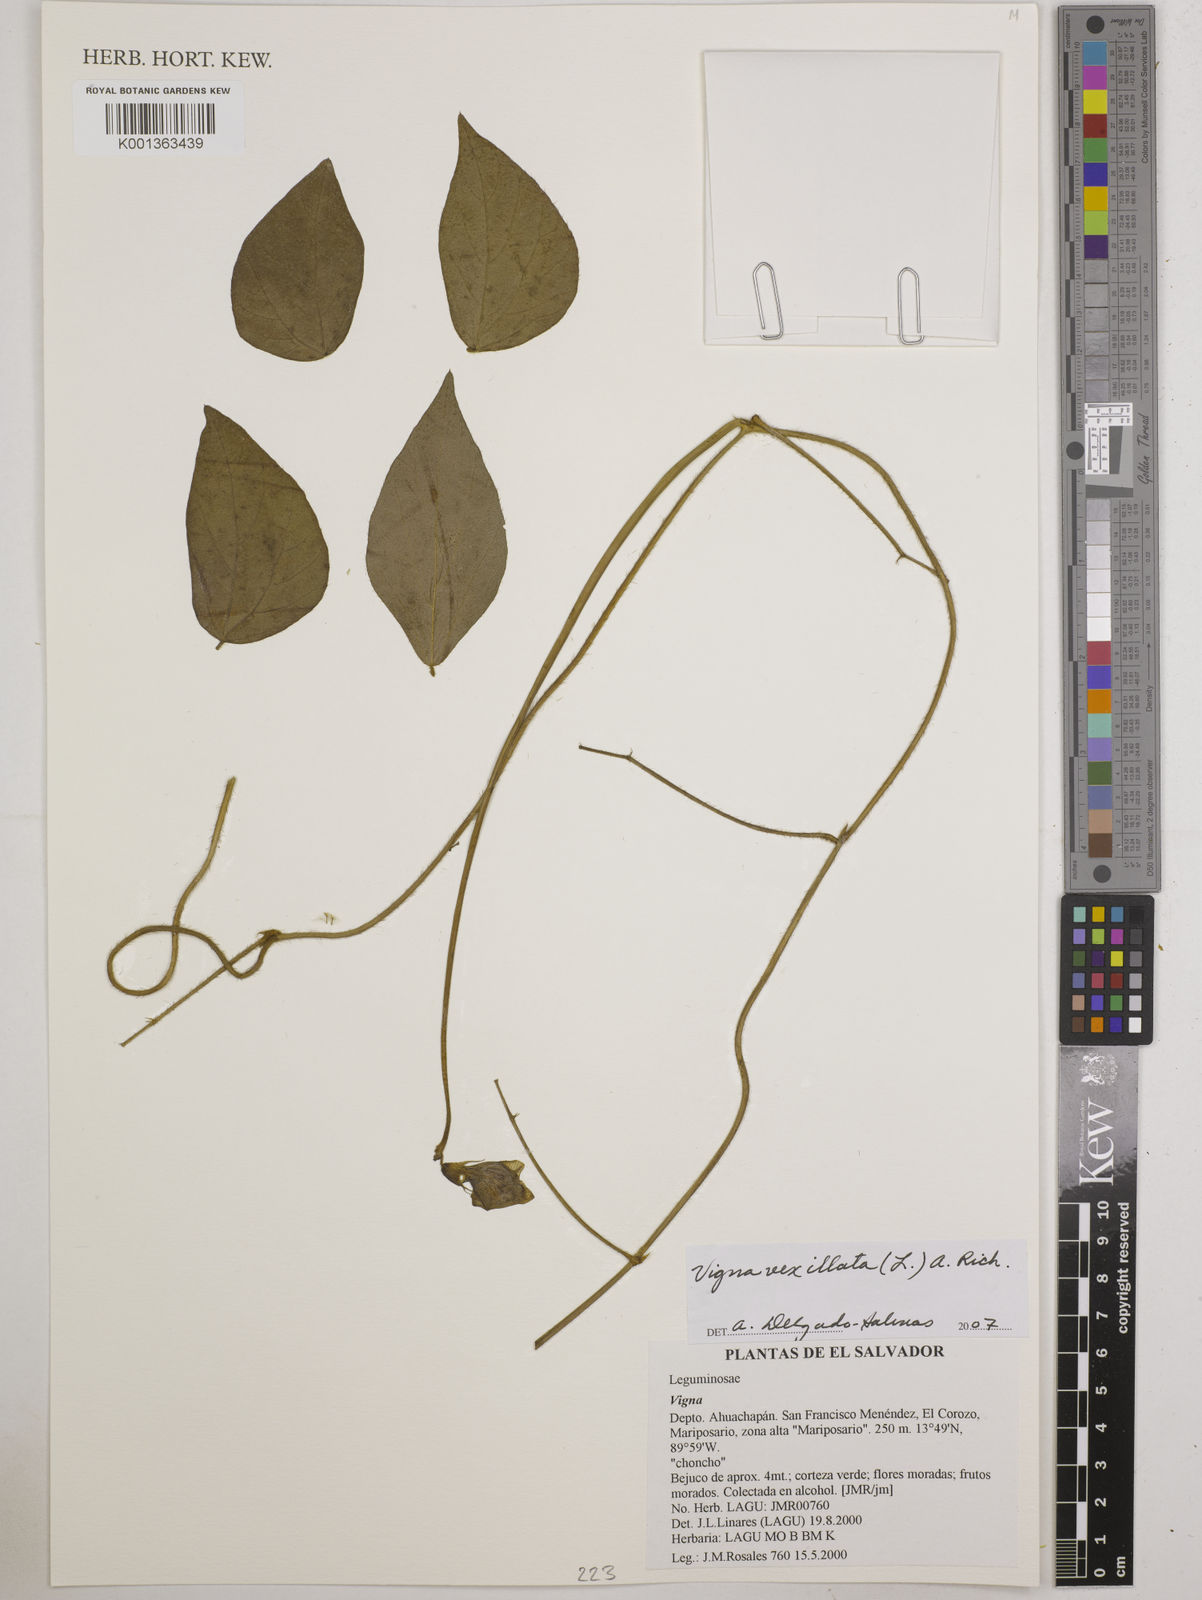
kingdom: Plantae
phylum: Tracheophyta
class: Magnoliopsida
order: Fabales
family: Fabaceae
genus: Vigna
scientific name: Vigna vexillata
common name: Zombi pea
